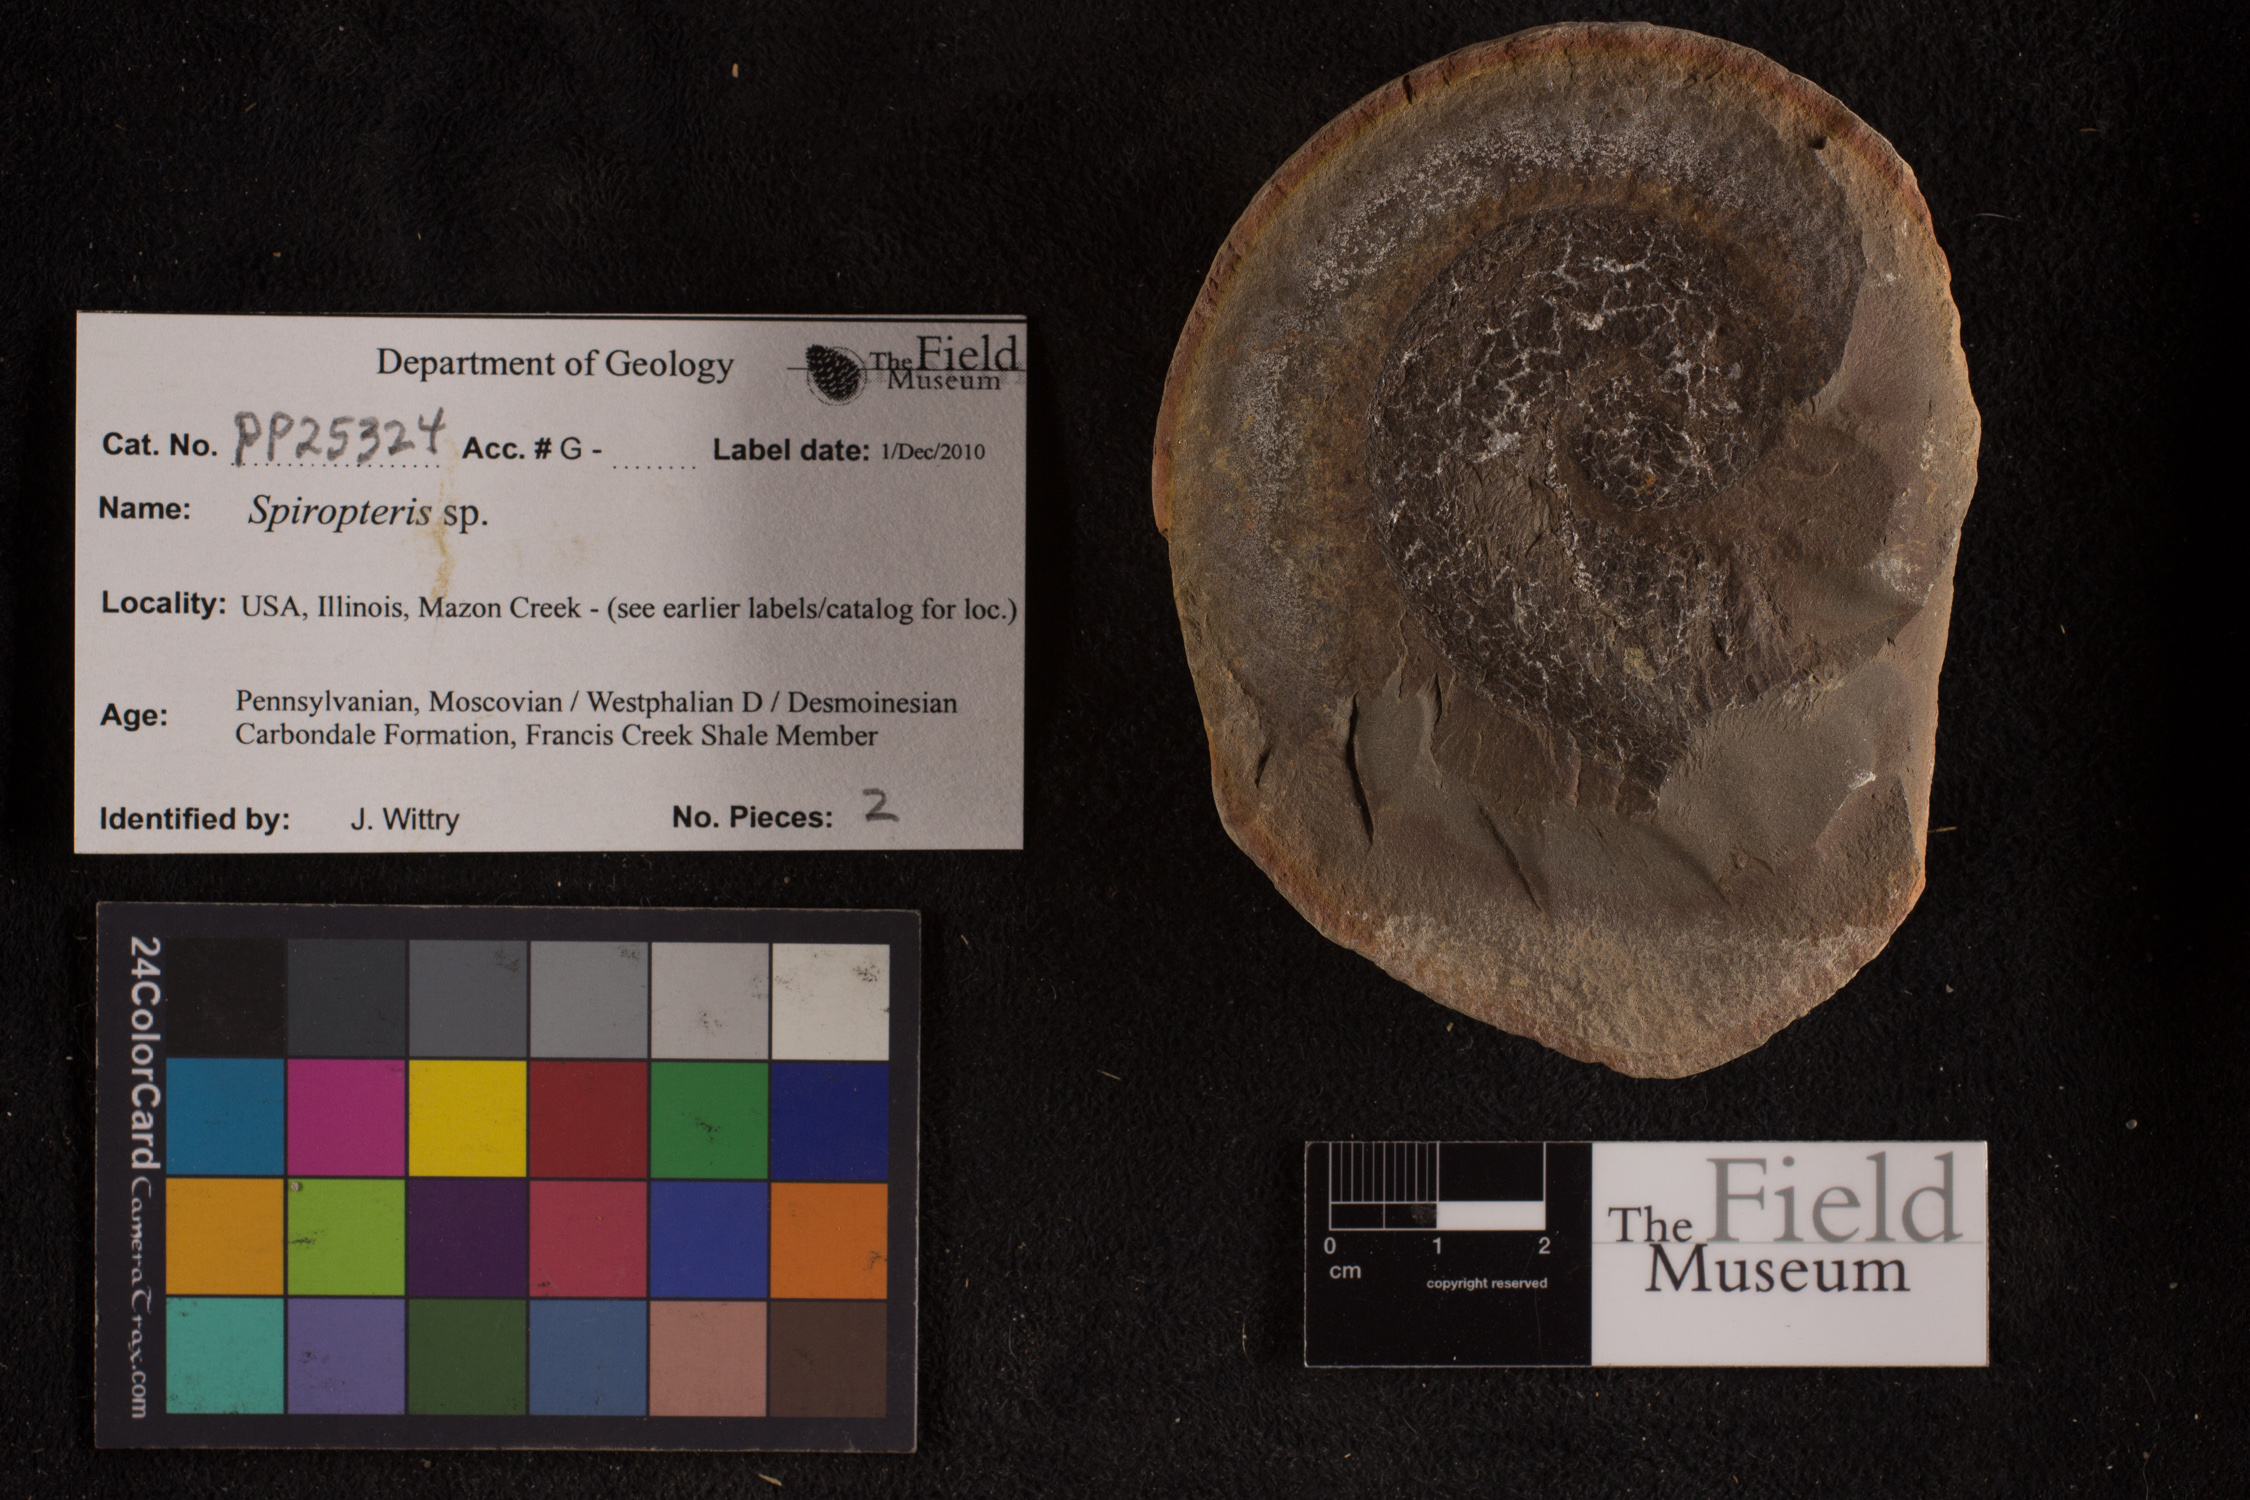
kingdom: Plantae
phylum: Tracheophyta
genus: Spiropteris
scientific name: Spiropteris
